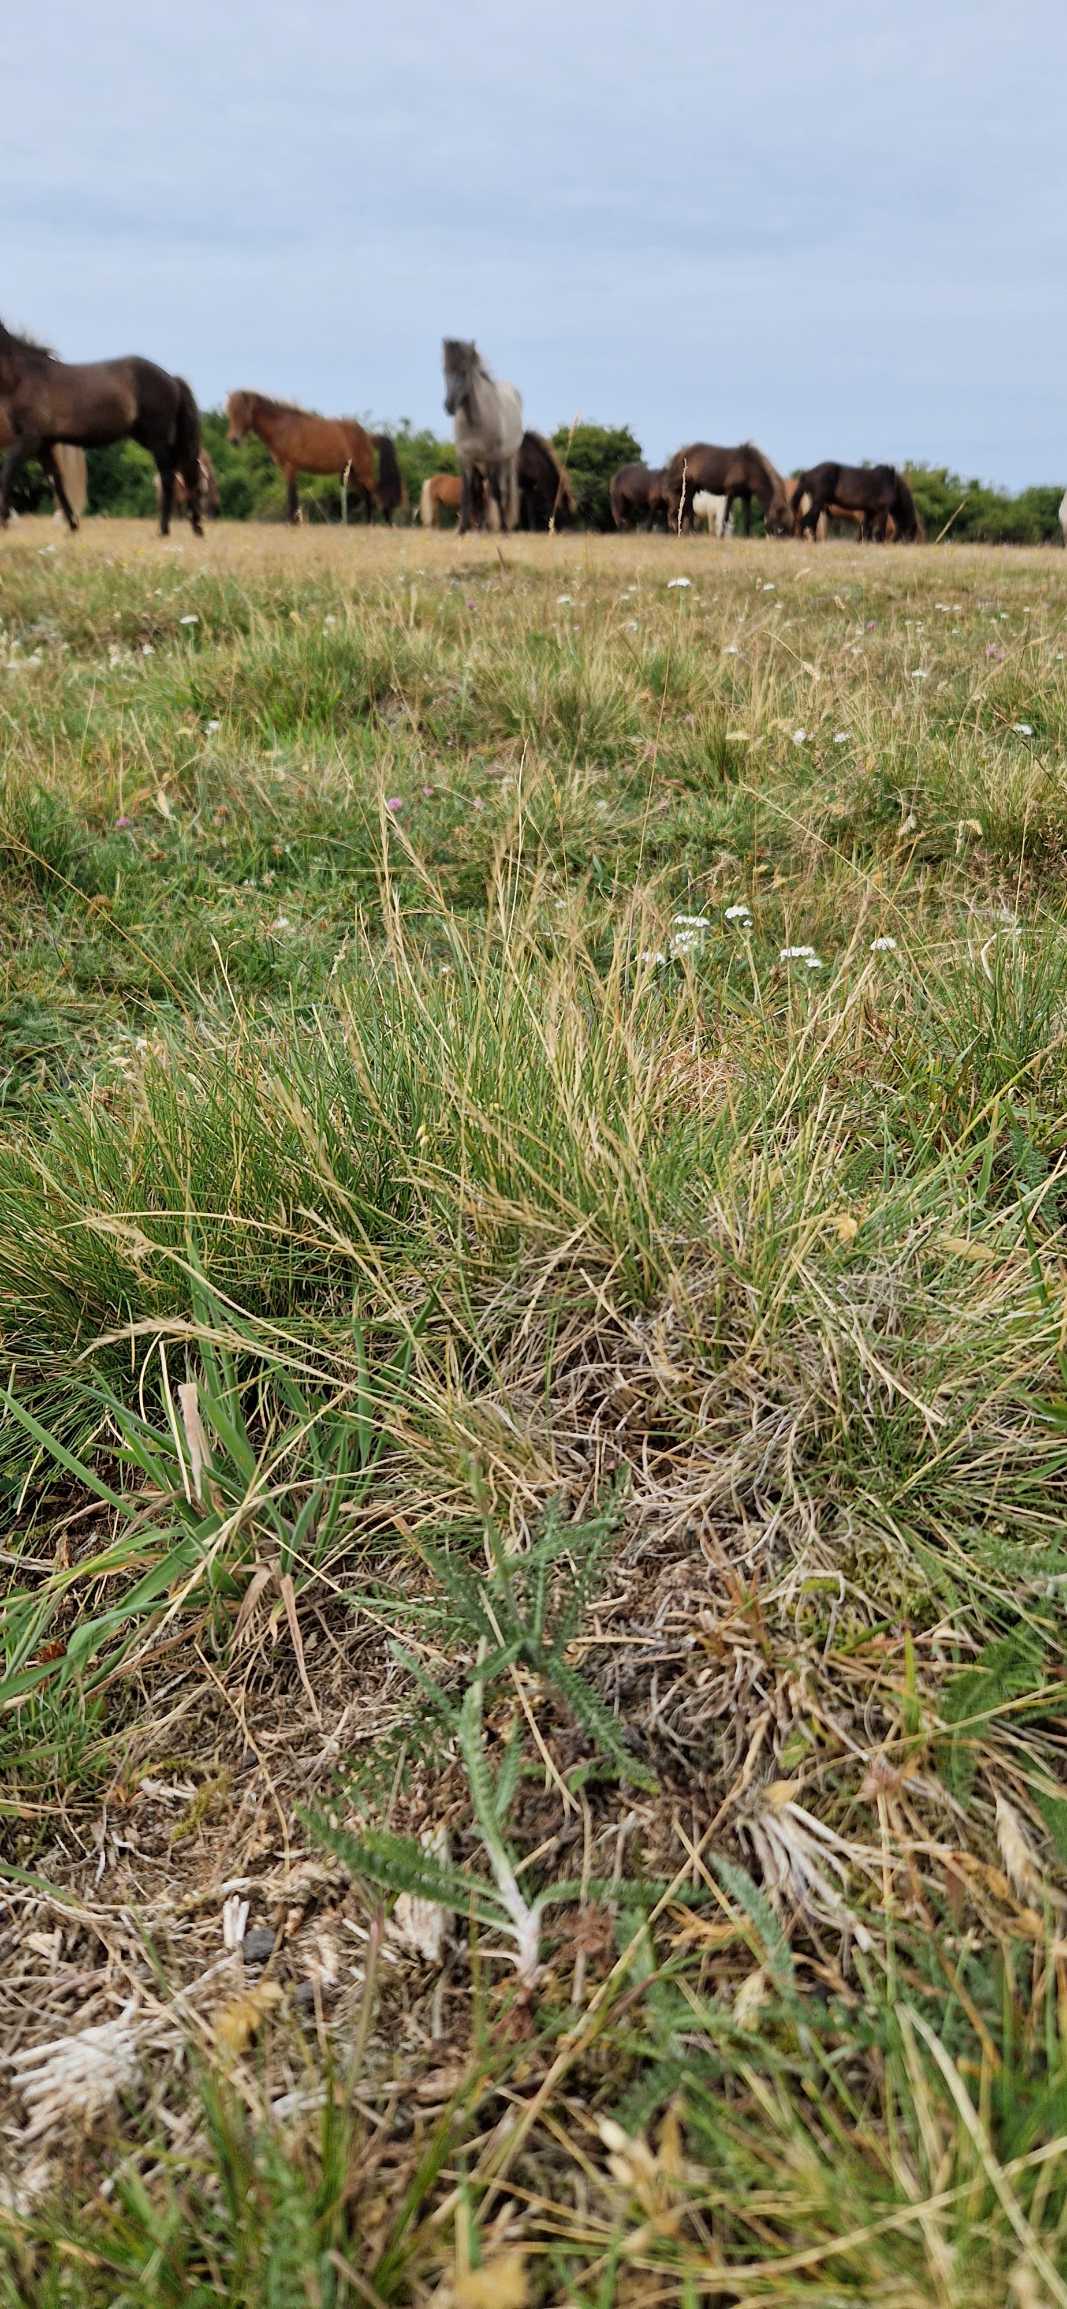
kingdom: Plantae
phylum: Tracheophyta
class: Liliopsida
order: Poales
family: Poaceae
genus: Nardus
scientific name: Nardus stricta
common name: Katteskæg
